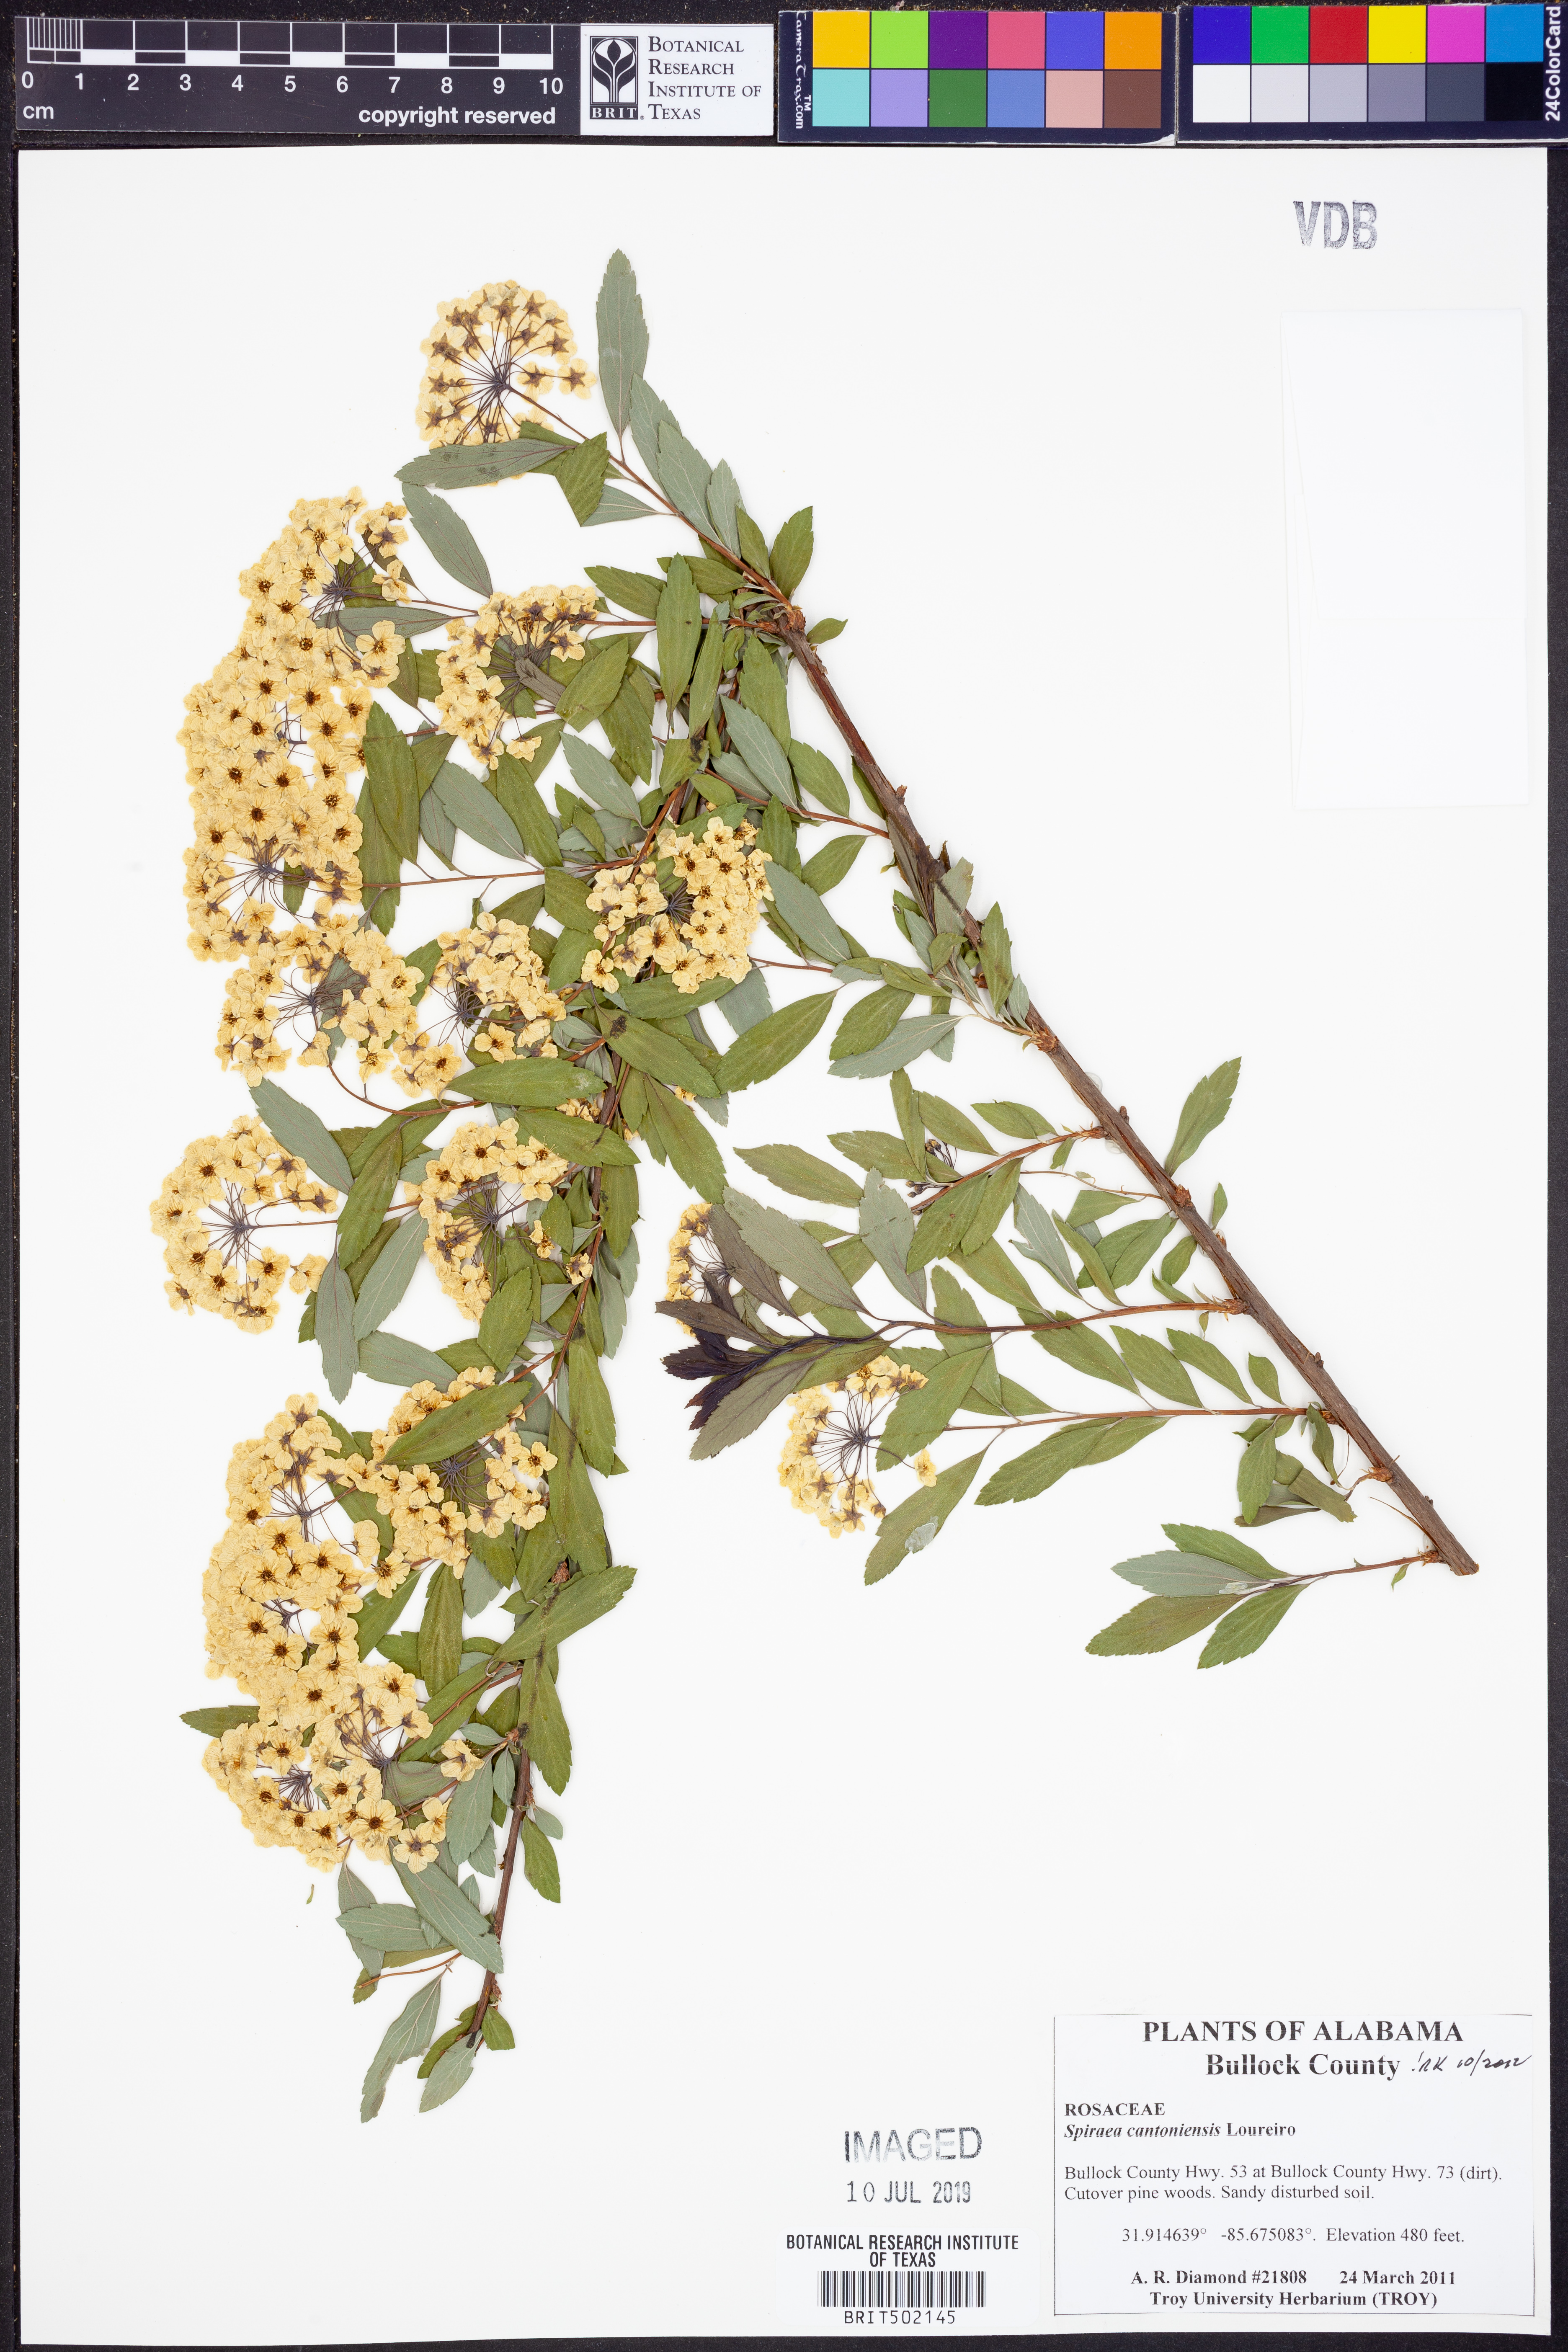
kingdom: Plantae
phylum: Tracheophyta
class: Magnoliopsida
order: Rosales
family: Rosaceae
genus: Spiraea
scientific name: Spiraea cantoniensis
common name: Reeves' meadowsweet
